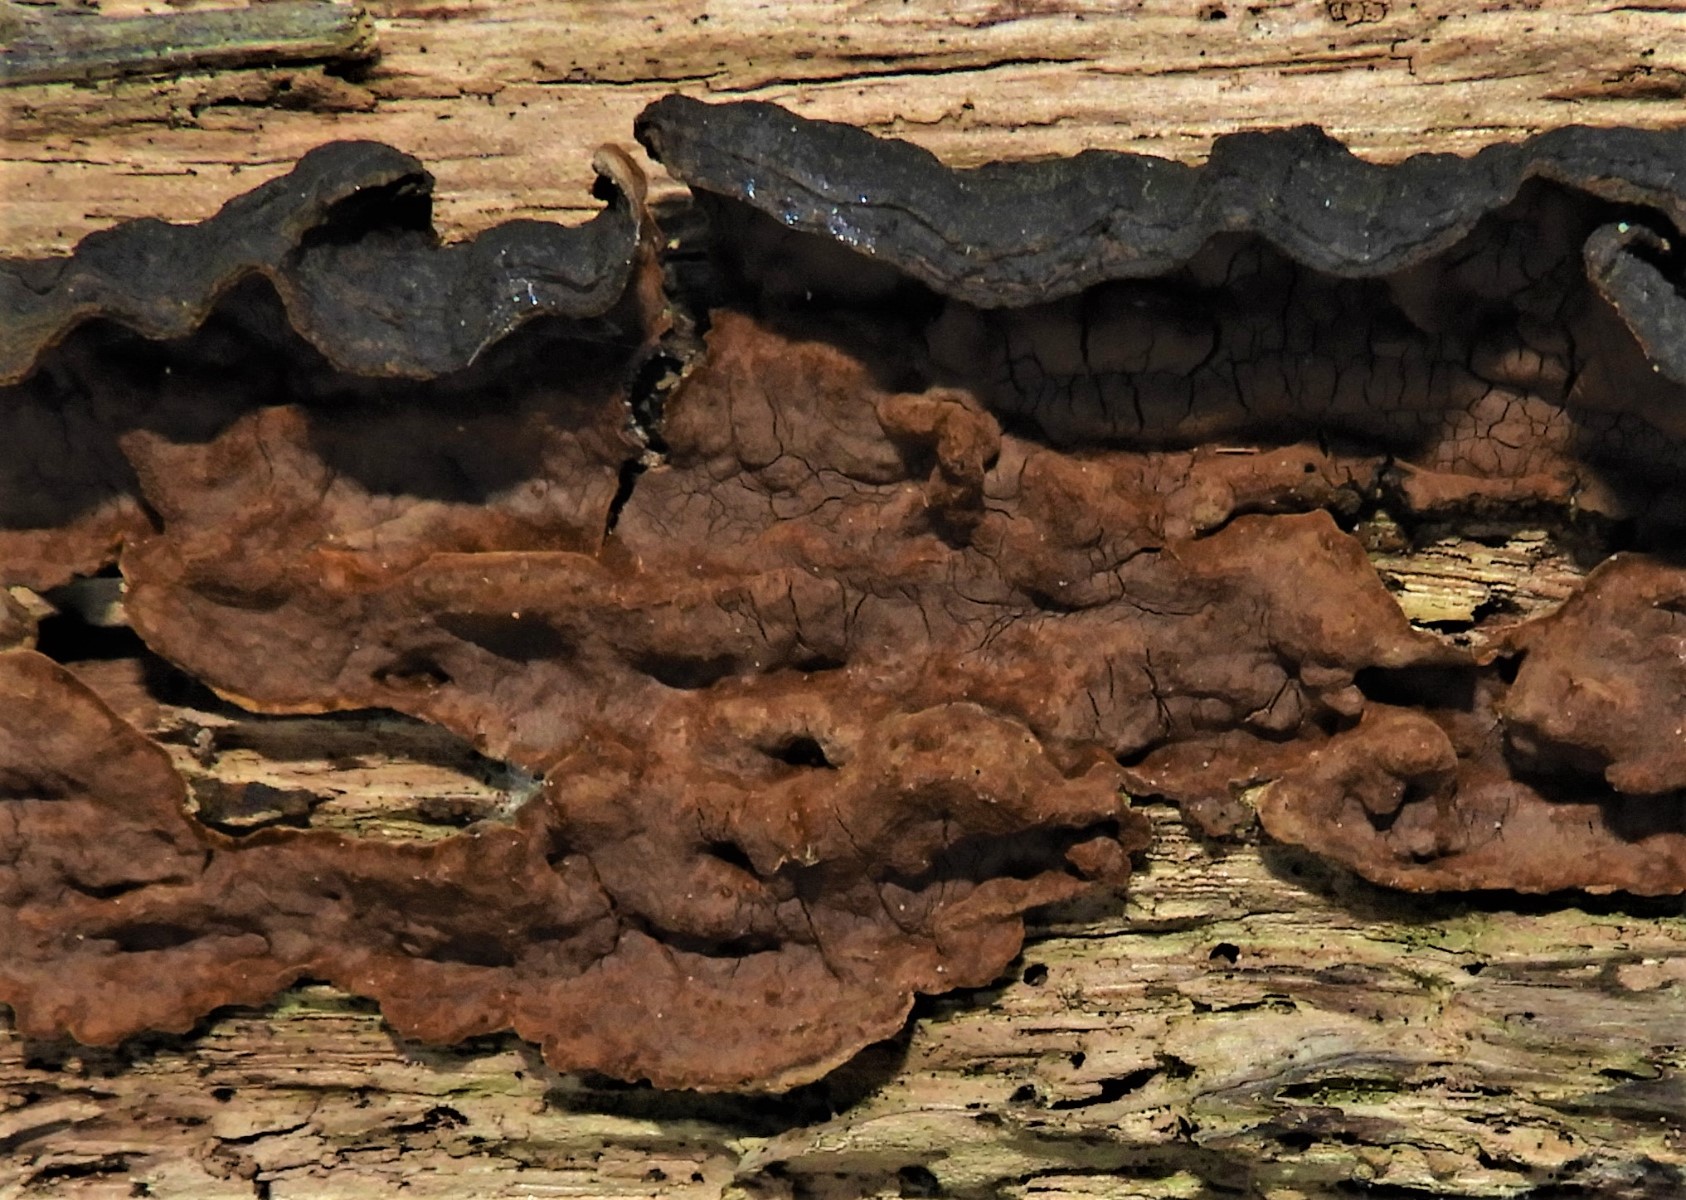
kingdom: Fungi
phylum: Basidiomycota
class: Agaricomycetes
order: Hymenochaetales
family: Hymenochaetaceae
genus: Hymenochaete
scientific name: Hymenochaete rubiginosa
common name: stiv ruslædersvamp
